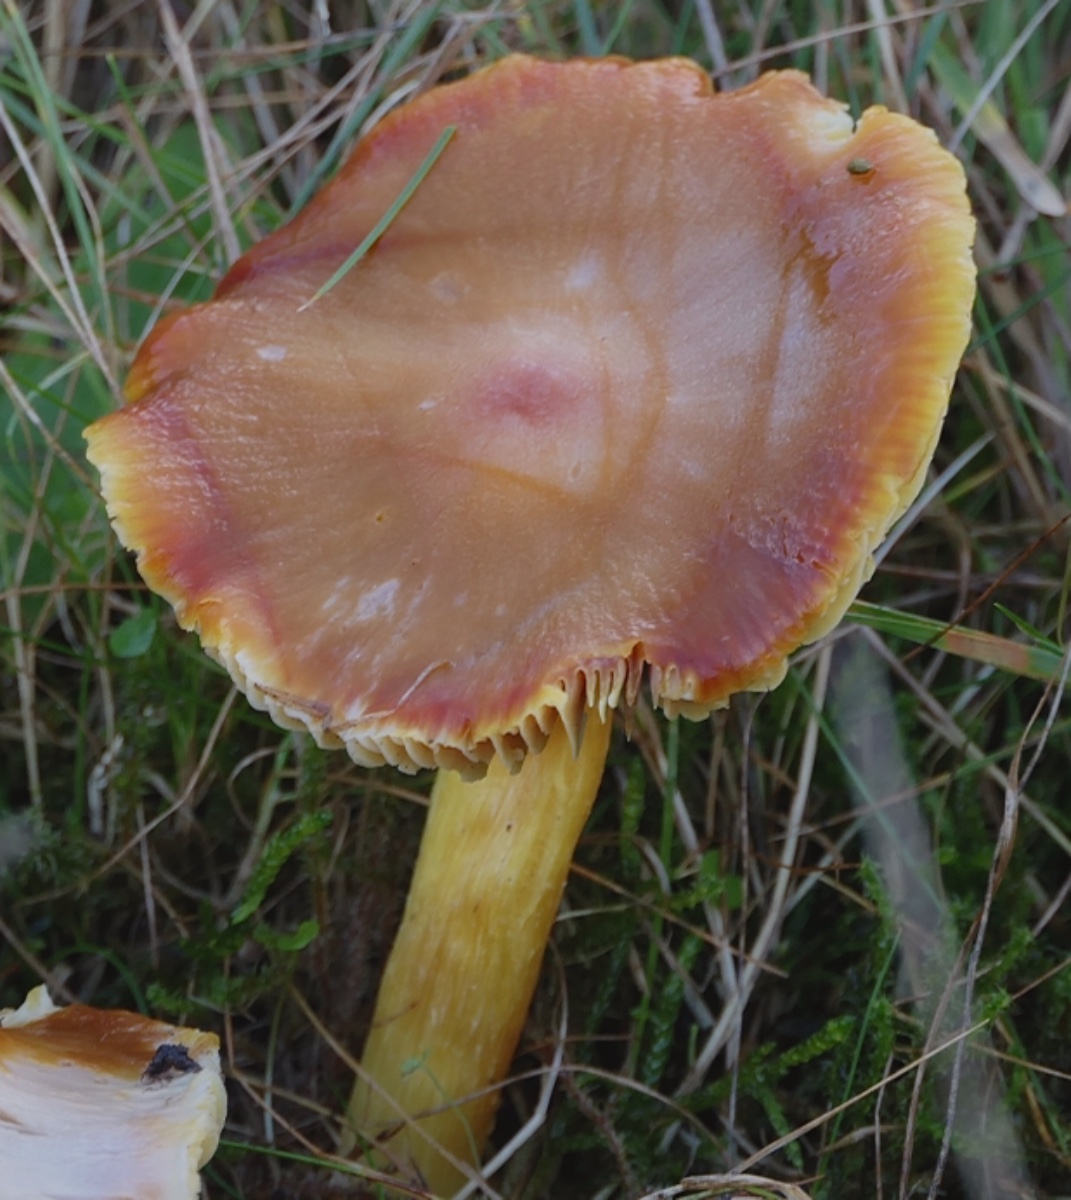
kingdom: Fungi
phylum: Basidiomycota
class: Agaricomycetes
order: Agaricales
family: Hygrophoraceae
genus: Hygrocybe
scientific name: Hygrocybe punicea
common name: skarlagen-vokshat
